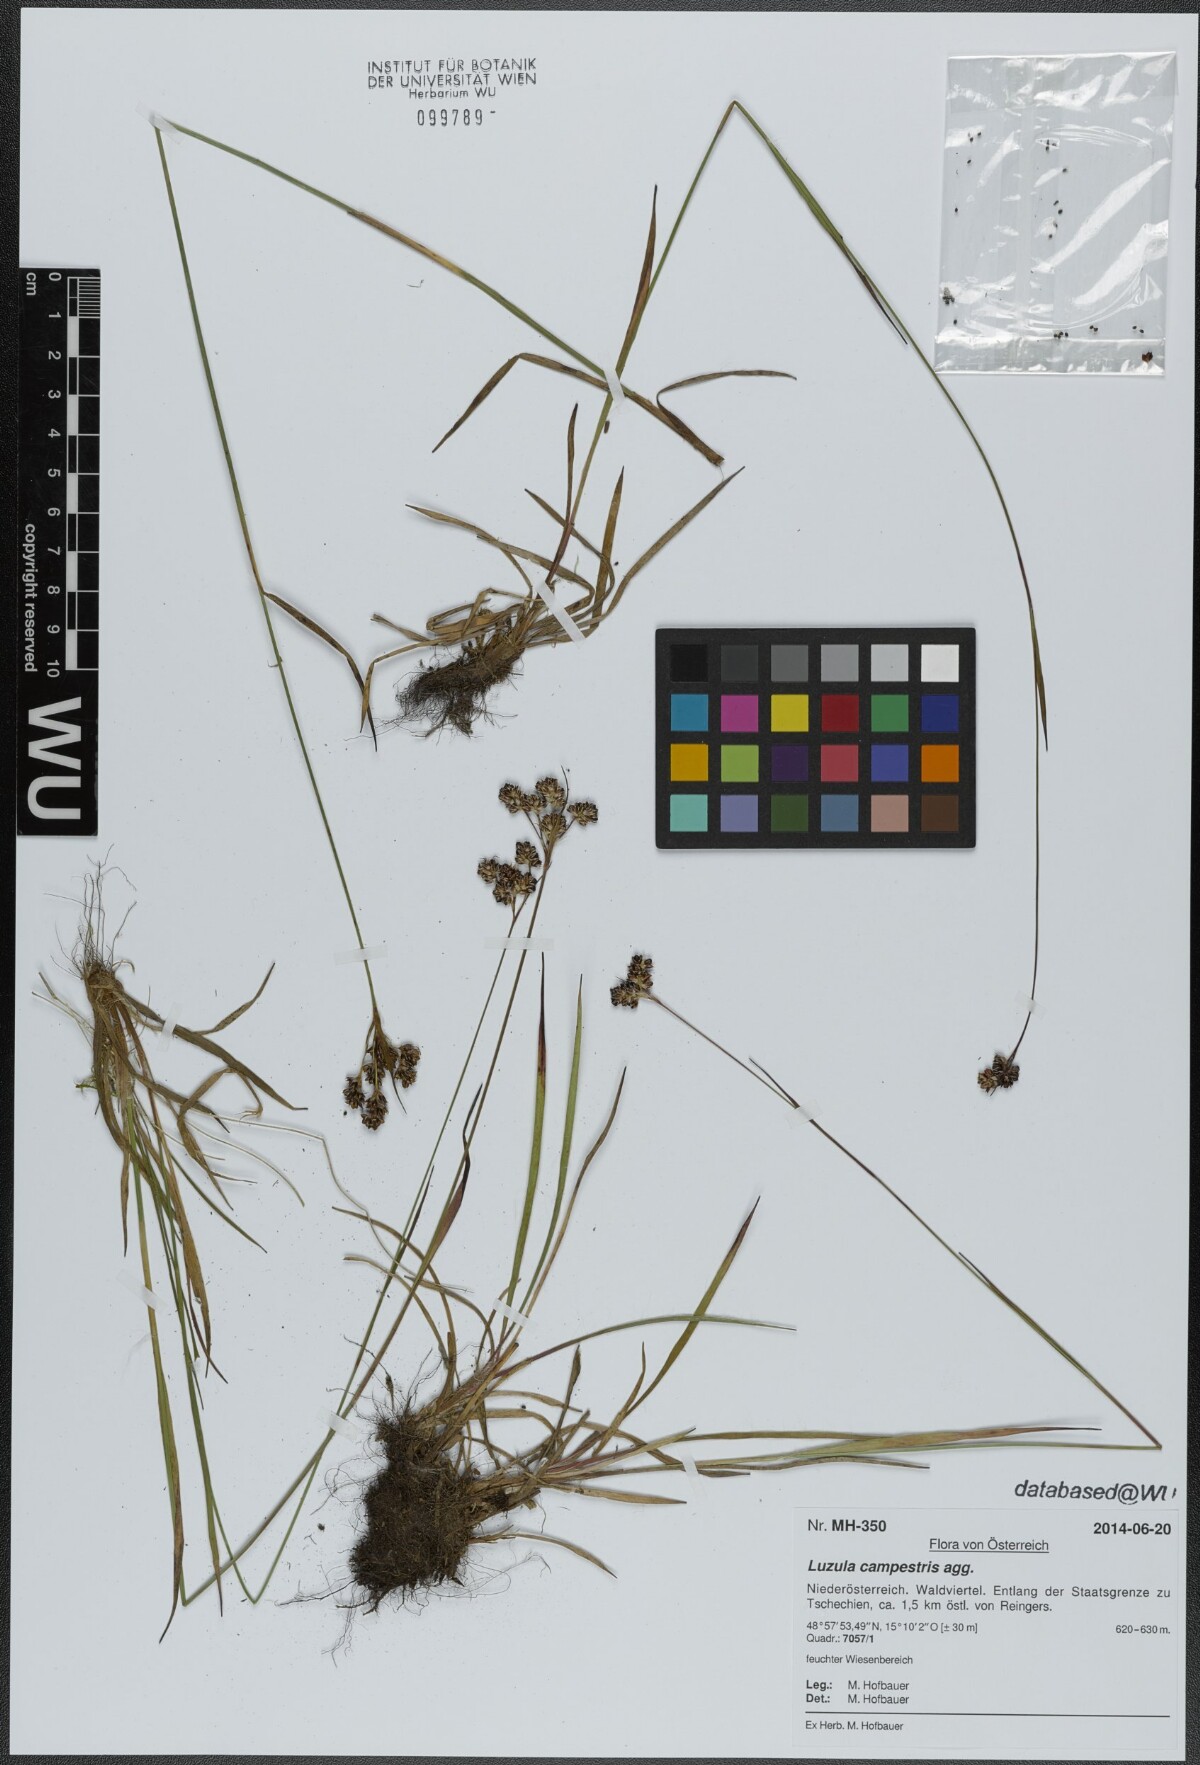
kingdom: Plantae
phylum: Tracheophyta
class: Liliopsida
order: Poales
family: Juncaceae
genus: Luzula
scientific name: Luzula campestris
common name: Field wood-rush
